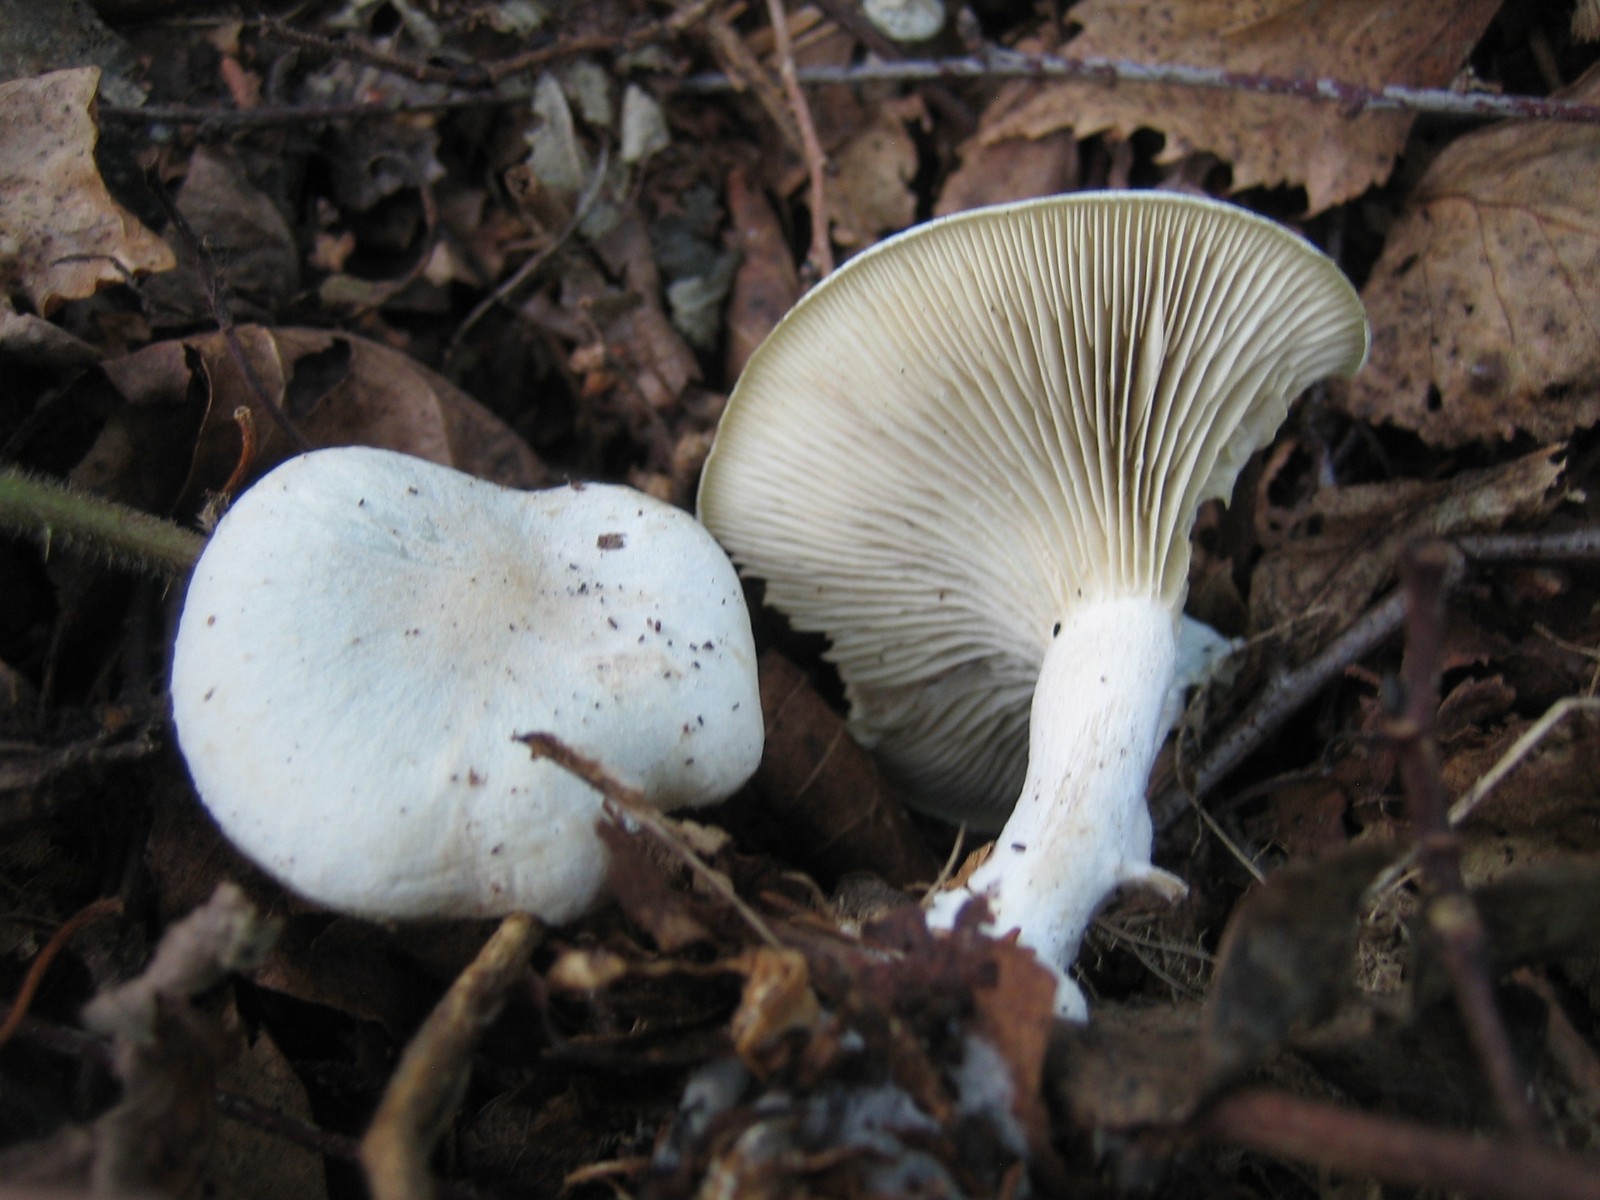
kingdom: Fungi
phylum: Basidiomycota
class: Agaricomycetes
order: Agaricales
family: Tricholomataceae
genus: Clitocybe
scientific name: Clitocybe odora
